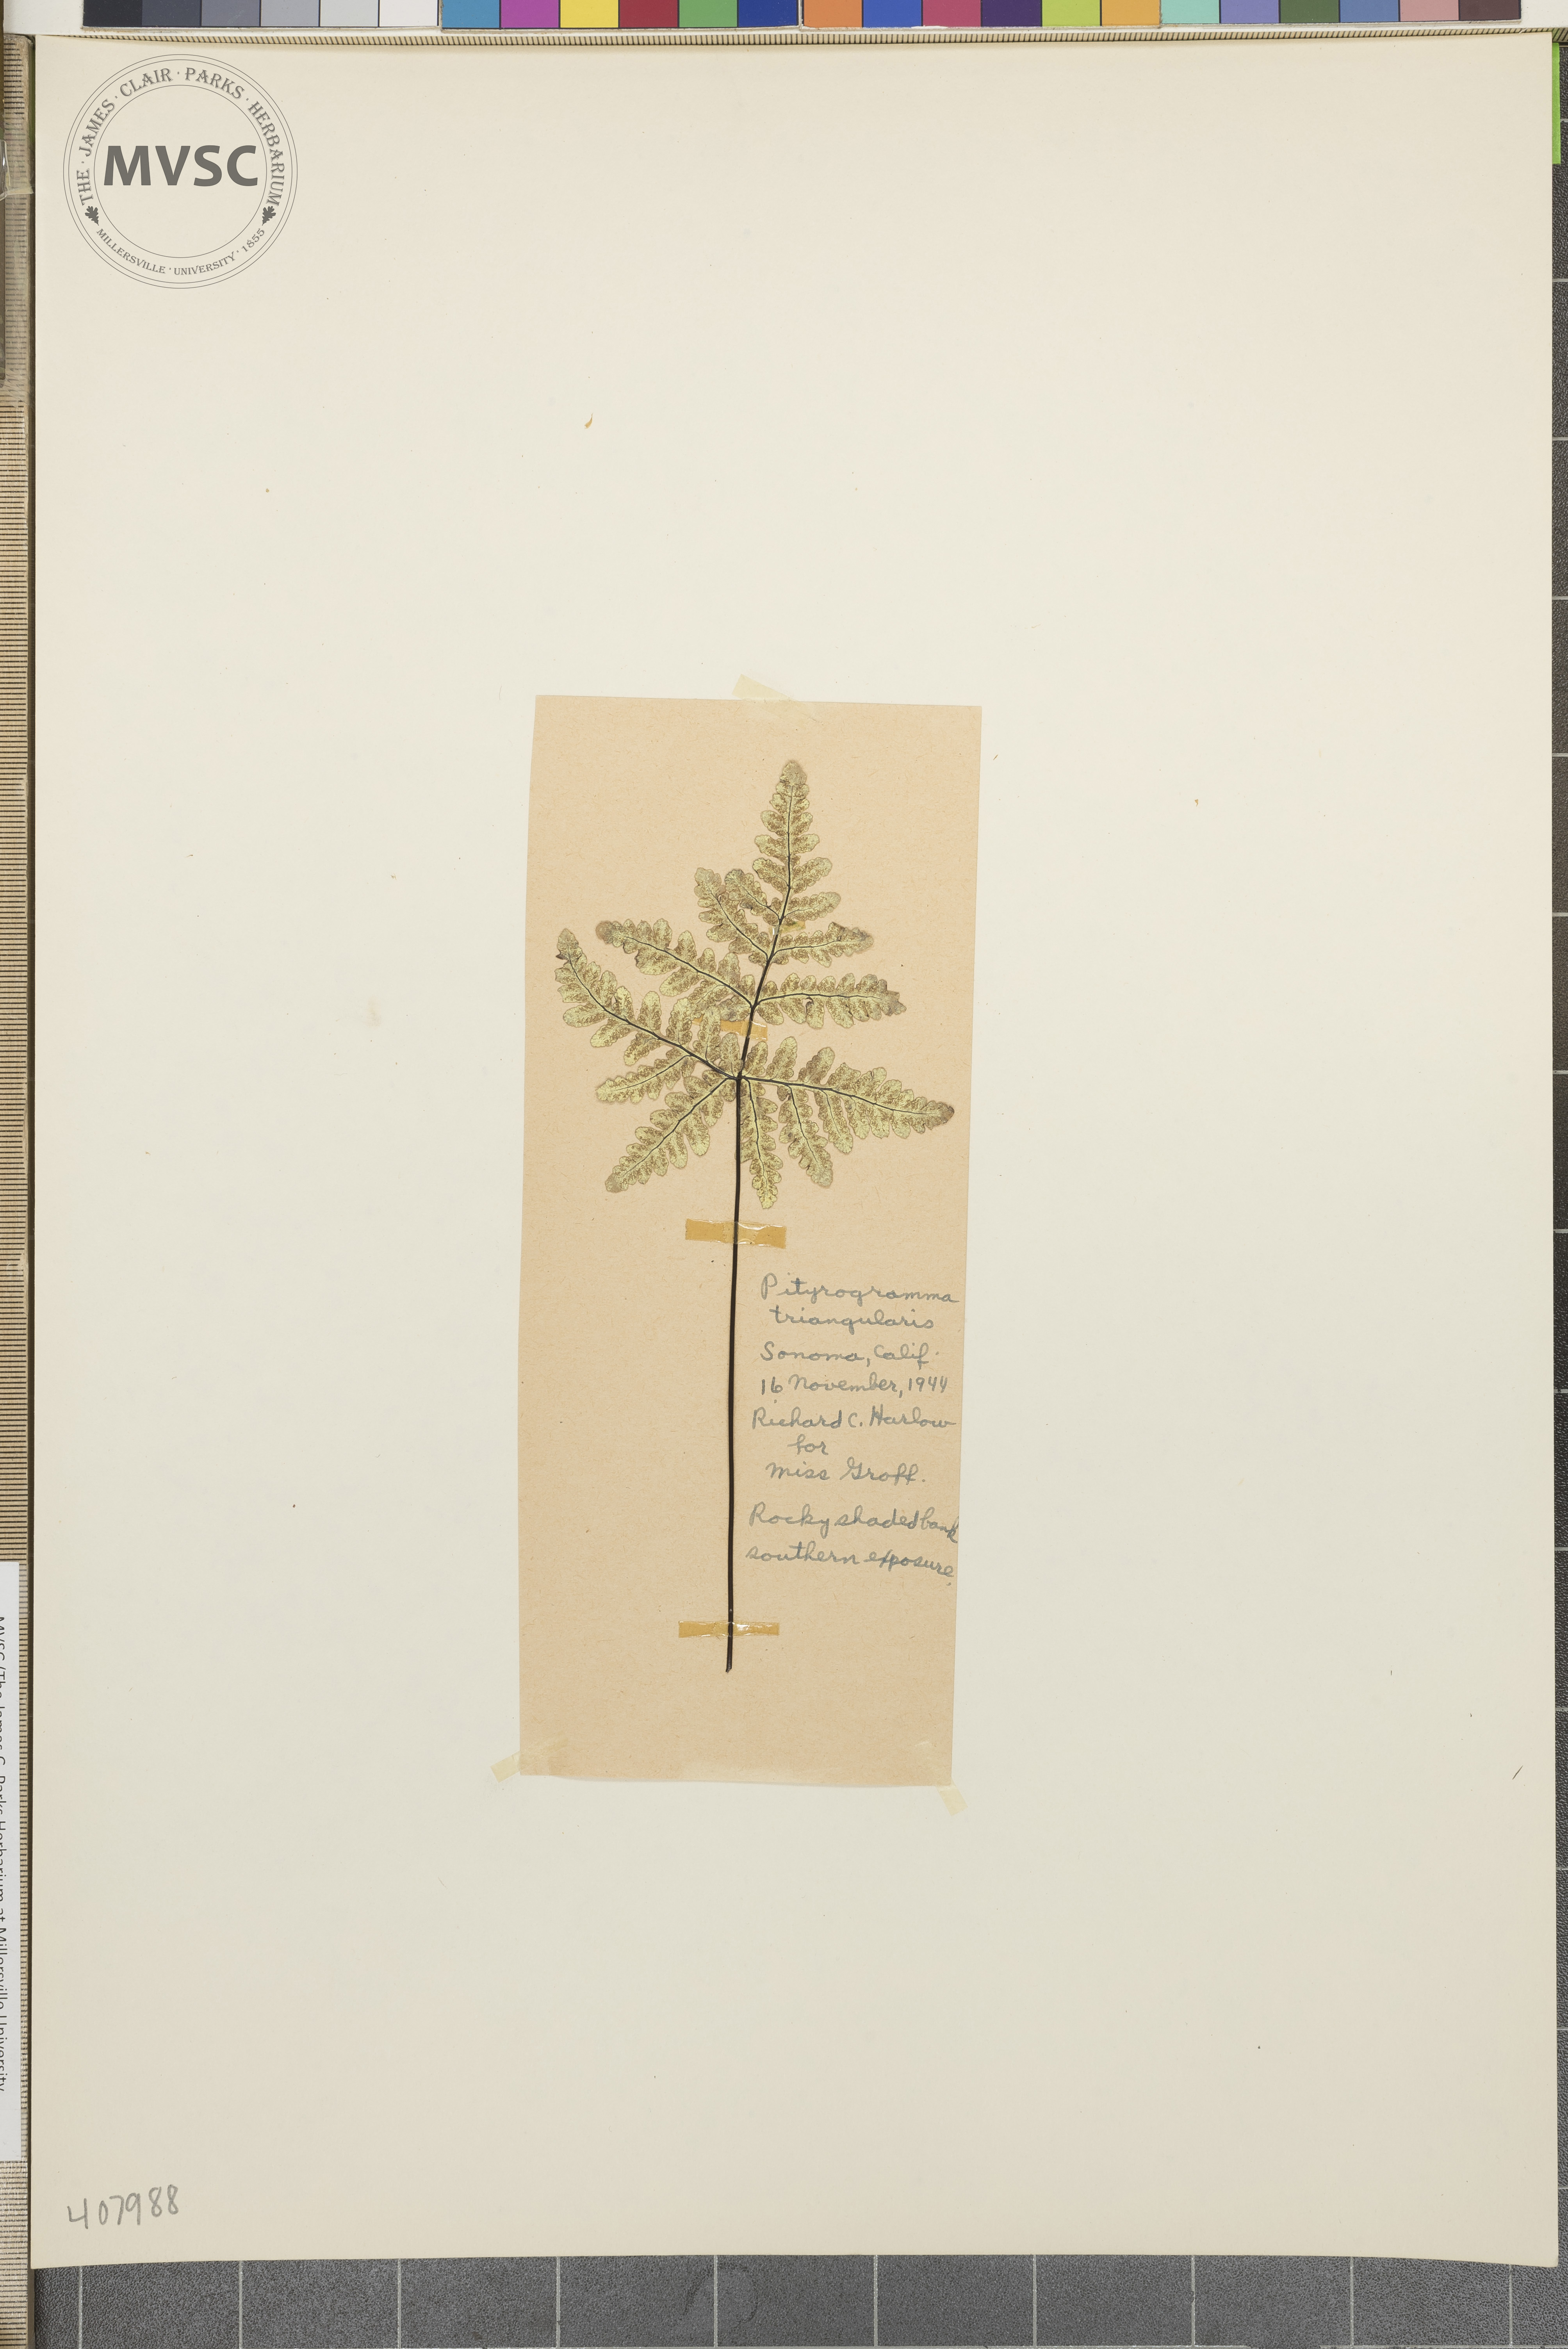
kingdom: Plantae
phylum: Tracheophyta
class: Polypodiopsida
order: Polypodiales
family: Pteridaceae
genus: Pentagramma
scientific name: Pentagramma triangularis
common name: Gold fern
